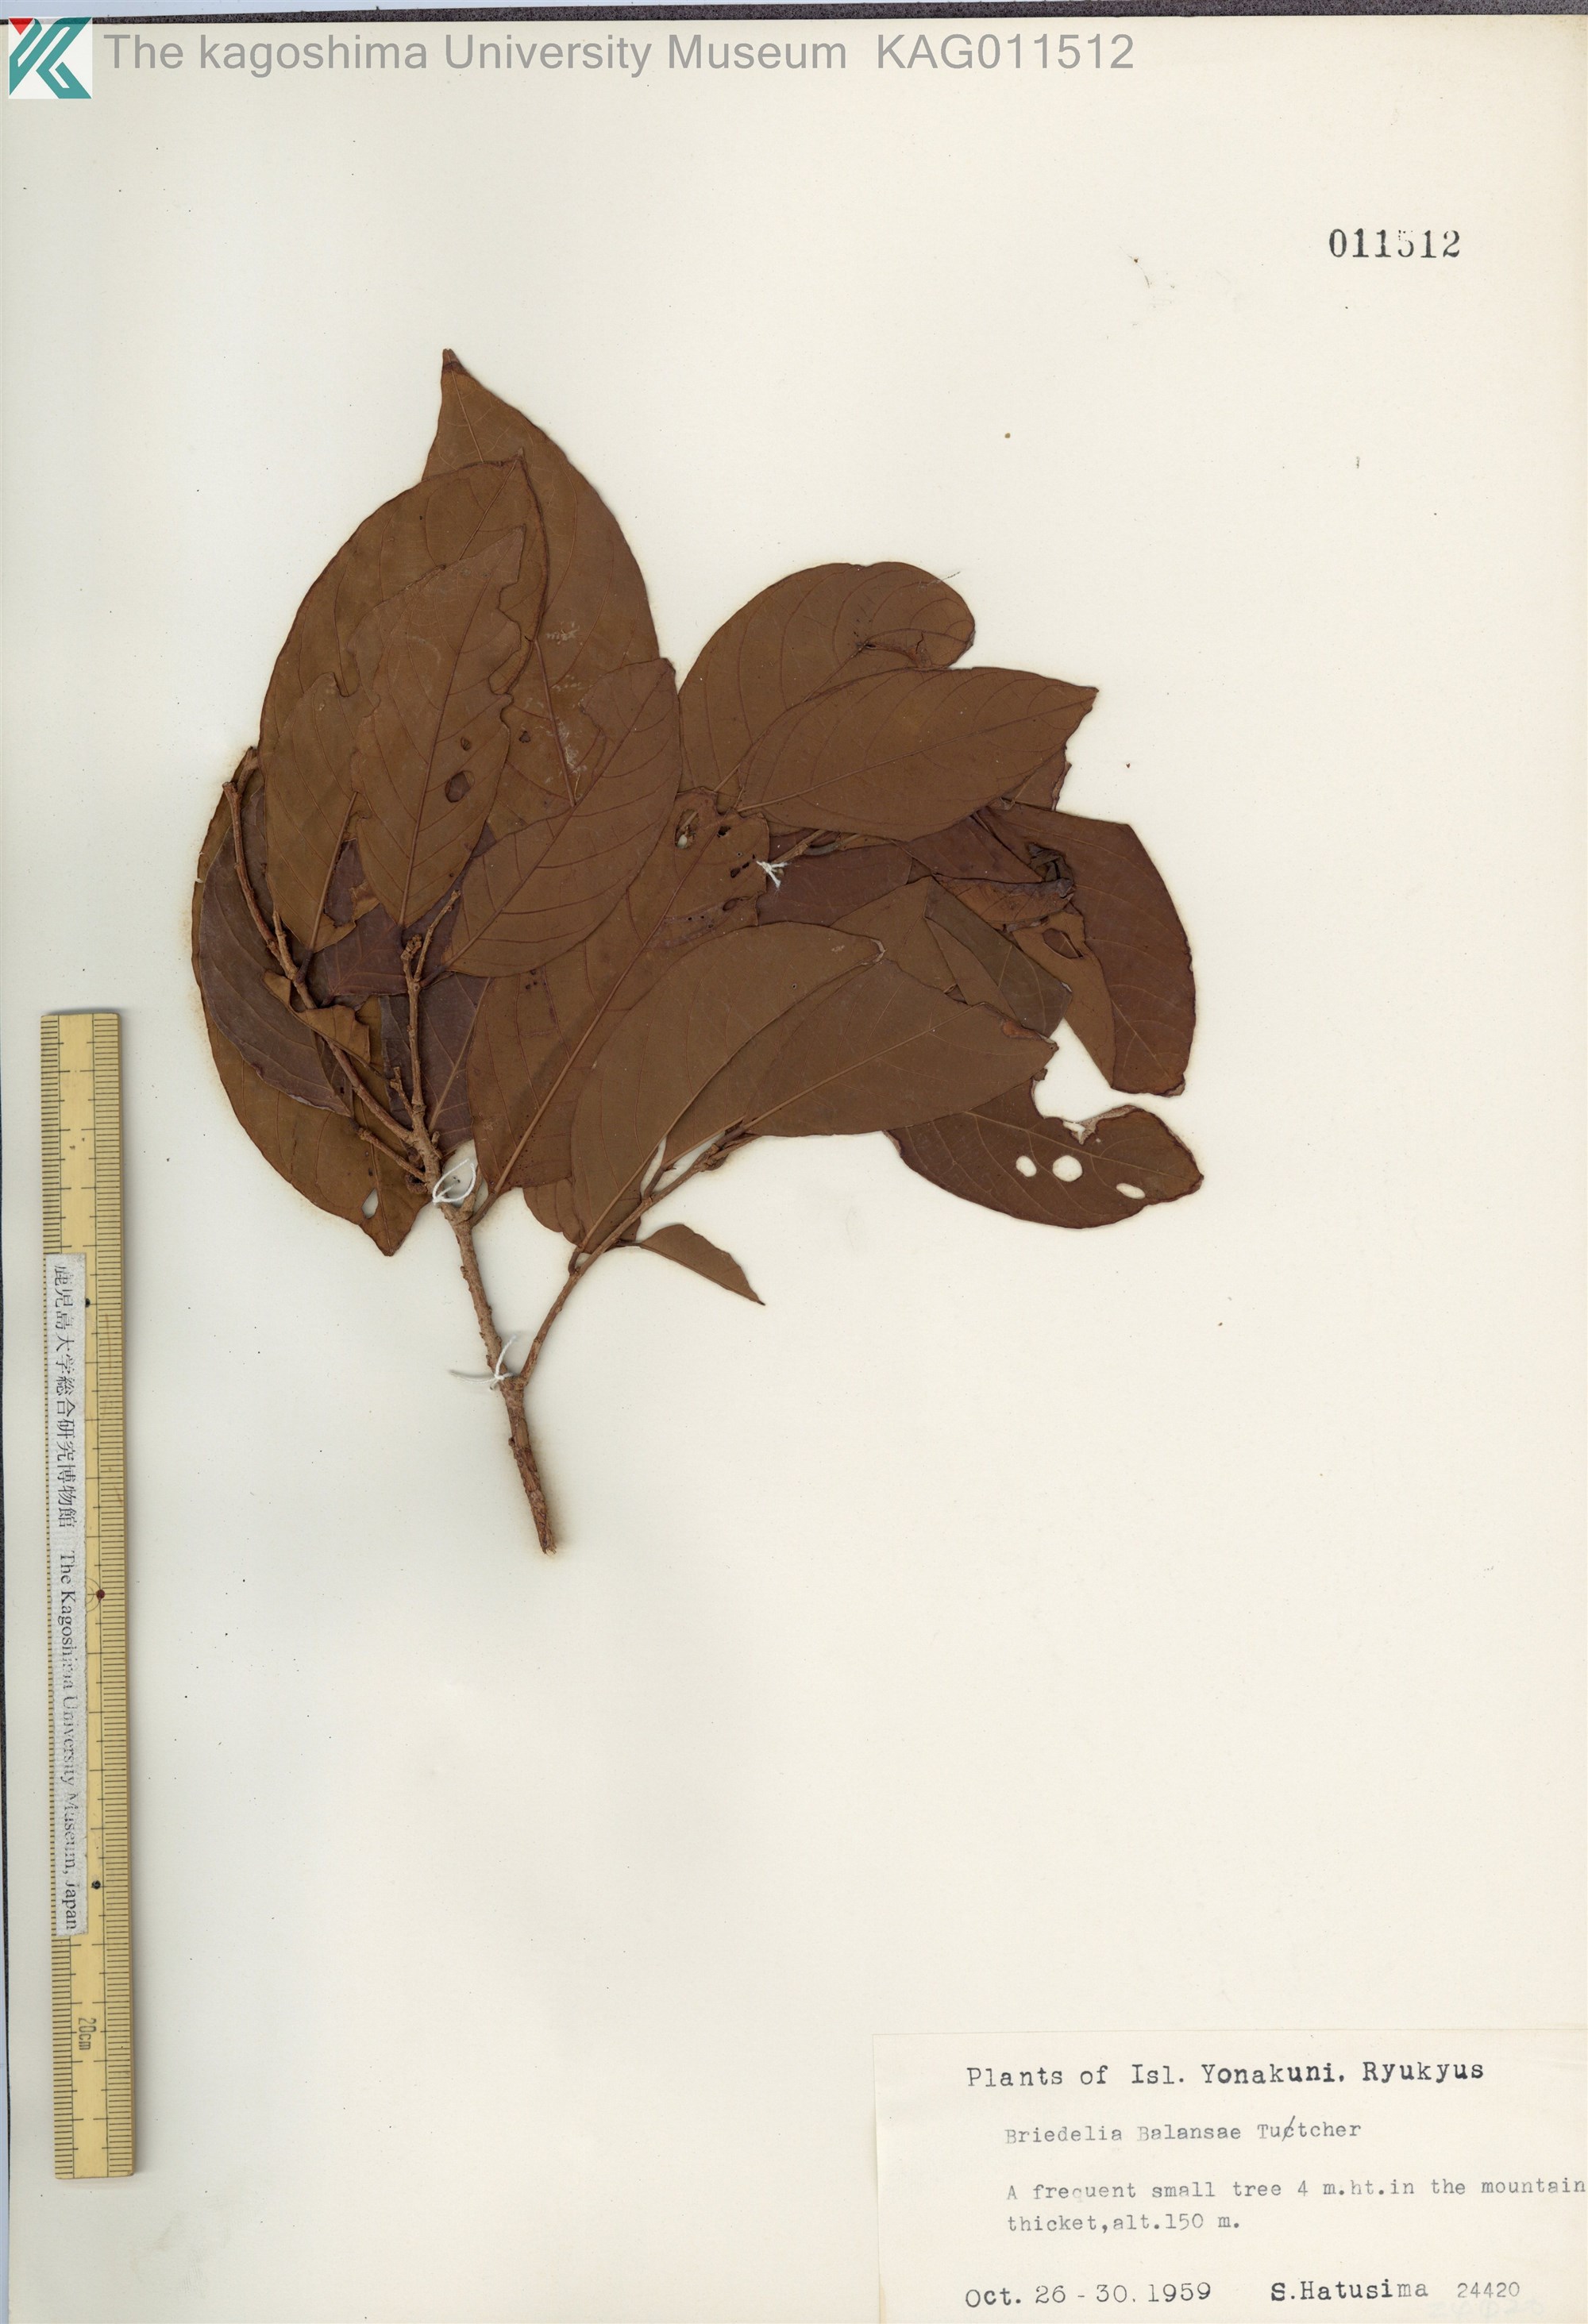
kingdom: Plantae
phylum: Tracheophyta
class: Magnoliopsida
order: Malpighiales
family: Phyllanthaceae
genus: Bridelia
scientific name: Bridelia balansae
